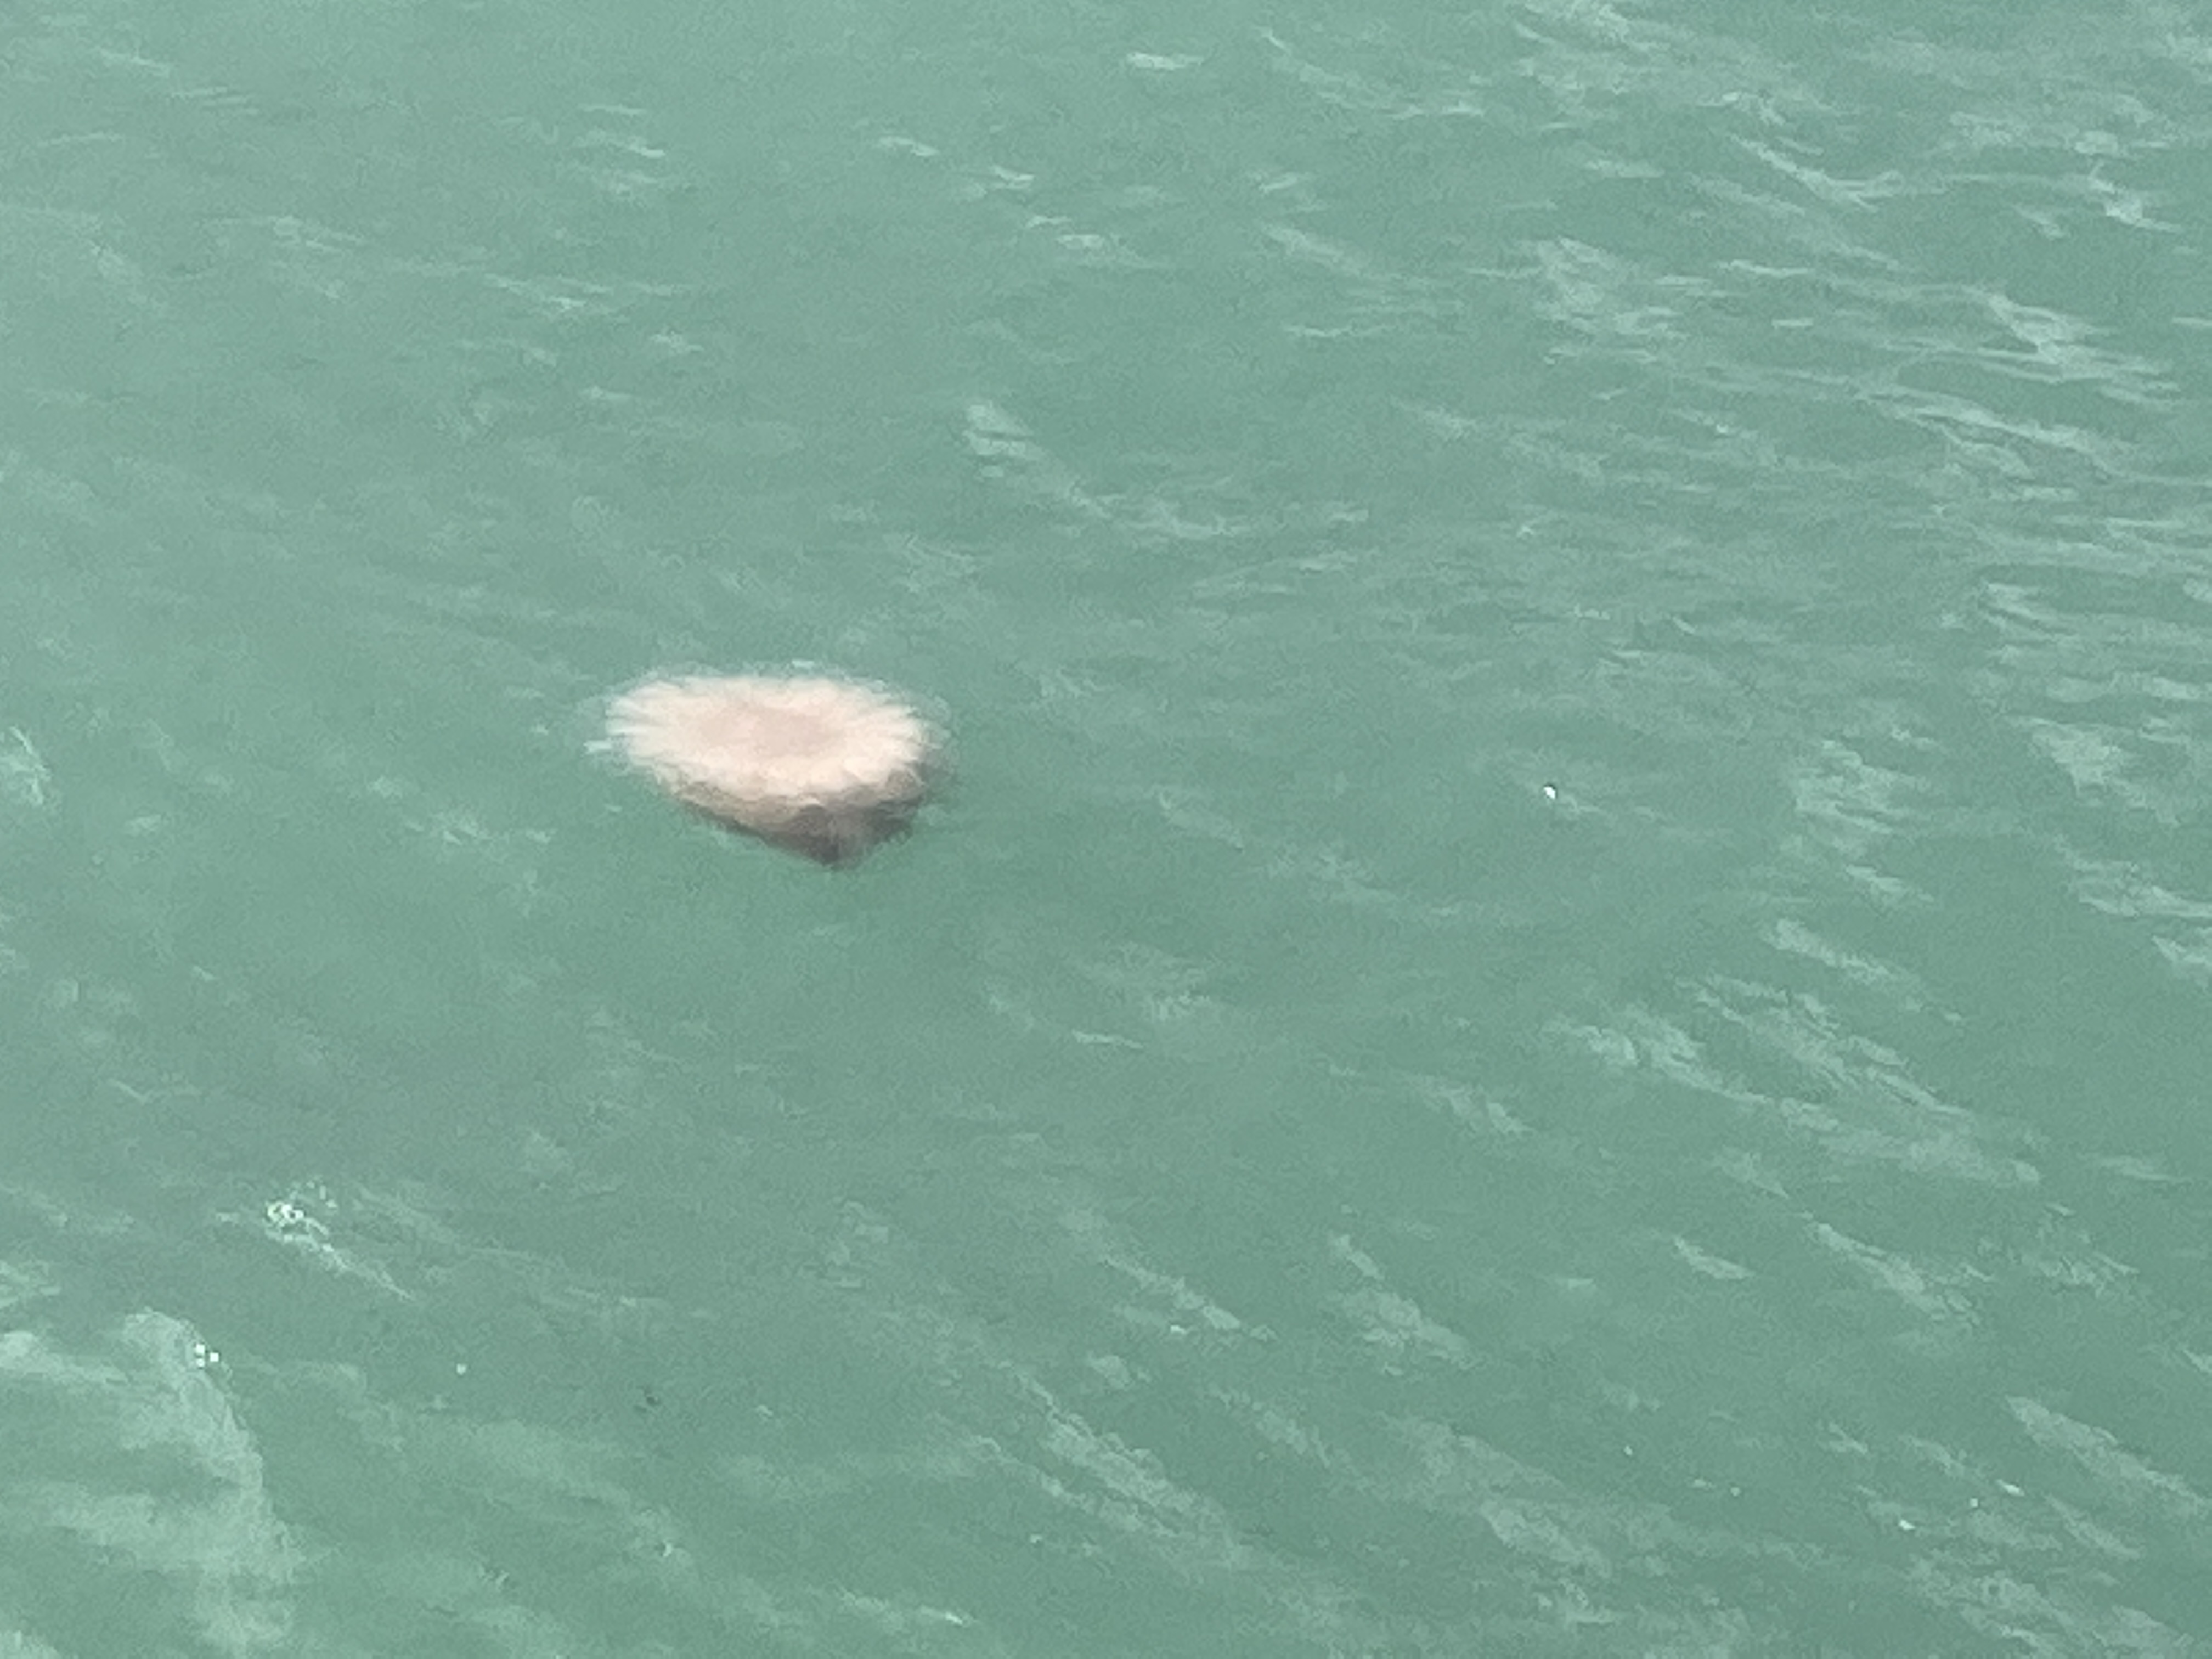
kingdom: Animalia
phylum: Cnidaria
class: Scyphozoa
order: Semaeostomeae
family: Cyaneidae
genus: Cyanea
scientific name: Cyanea nozakii
